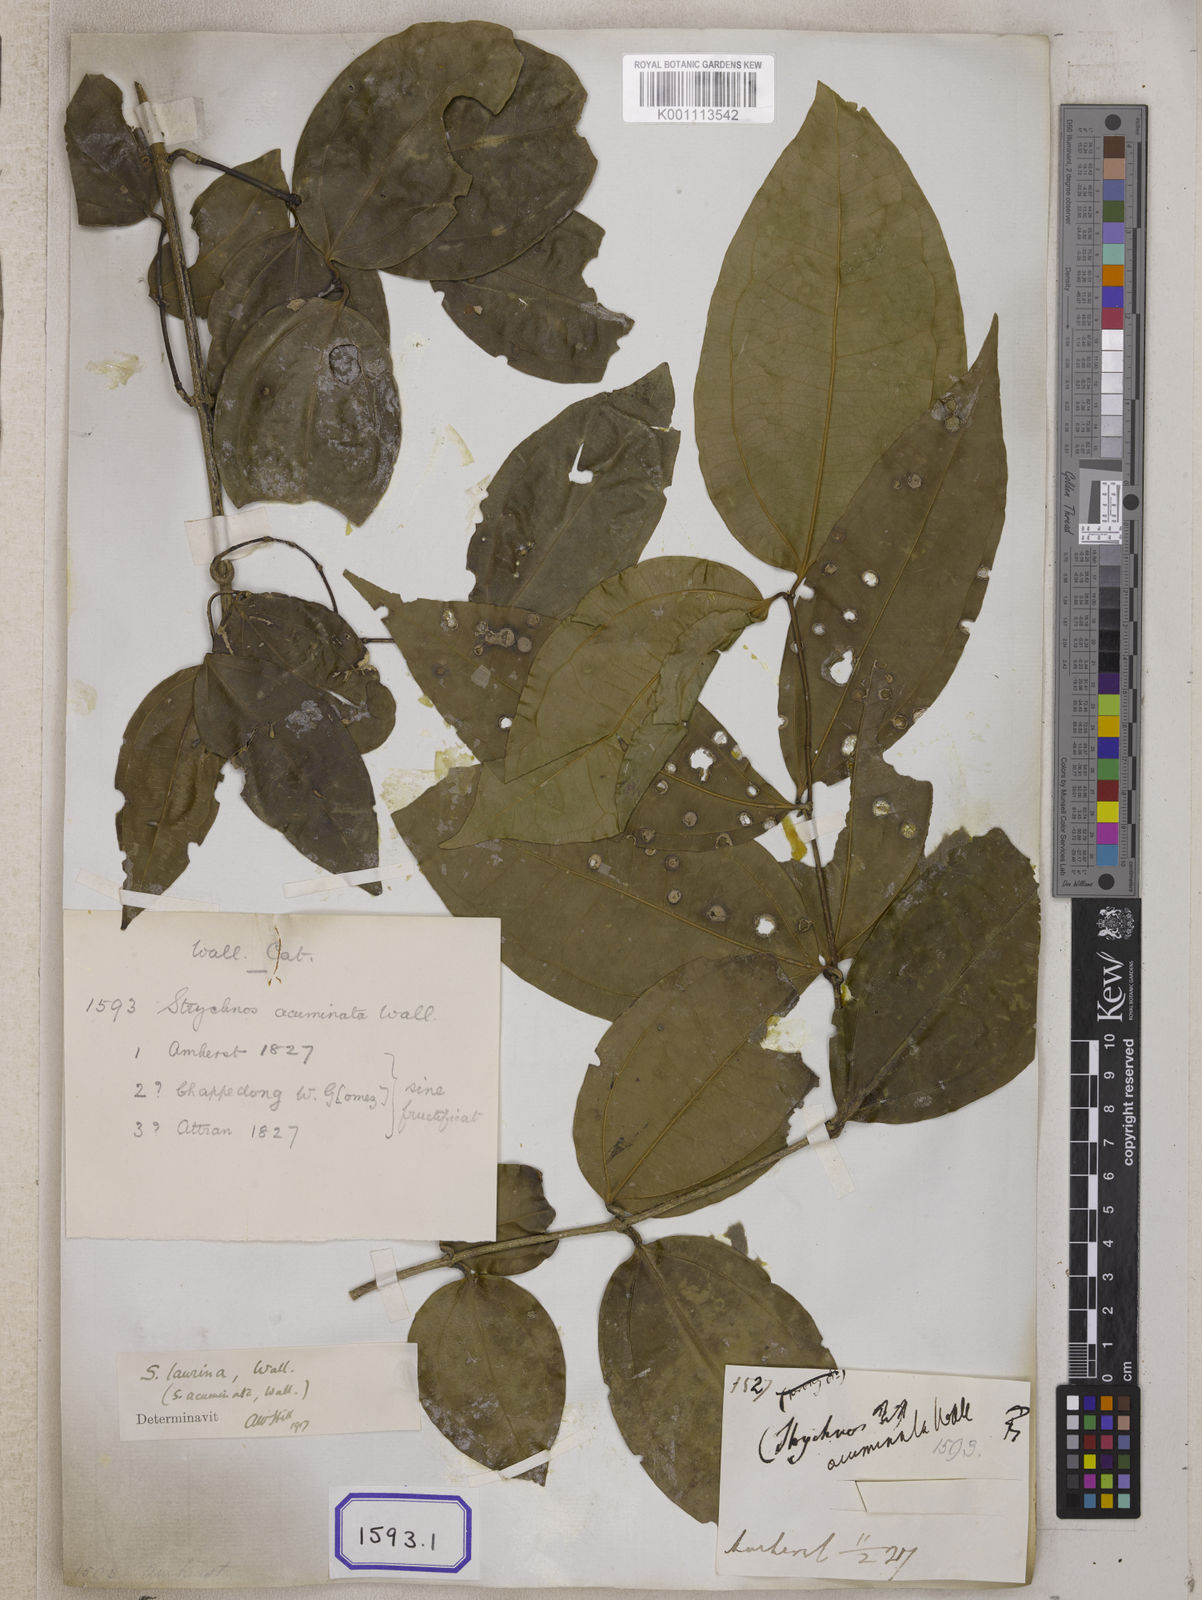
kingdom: Plantae
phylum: Tracheophyta
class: Magnoliopsida
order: Gentianales
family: Loganiaceae
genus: Strychnos
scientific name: Strychnos axillaris
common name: Strychninebush
